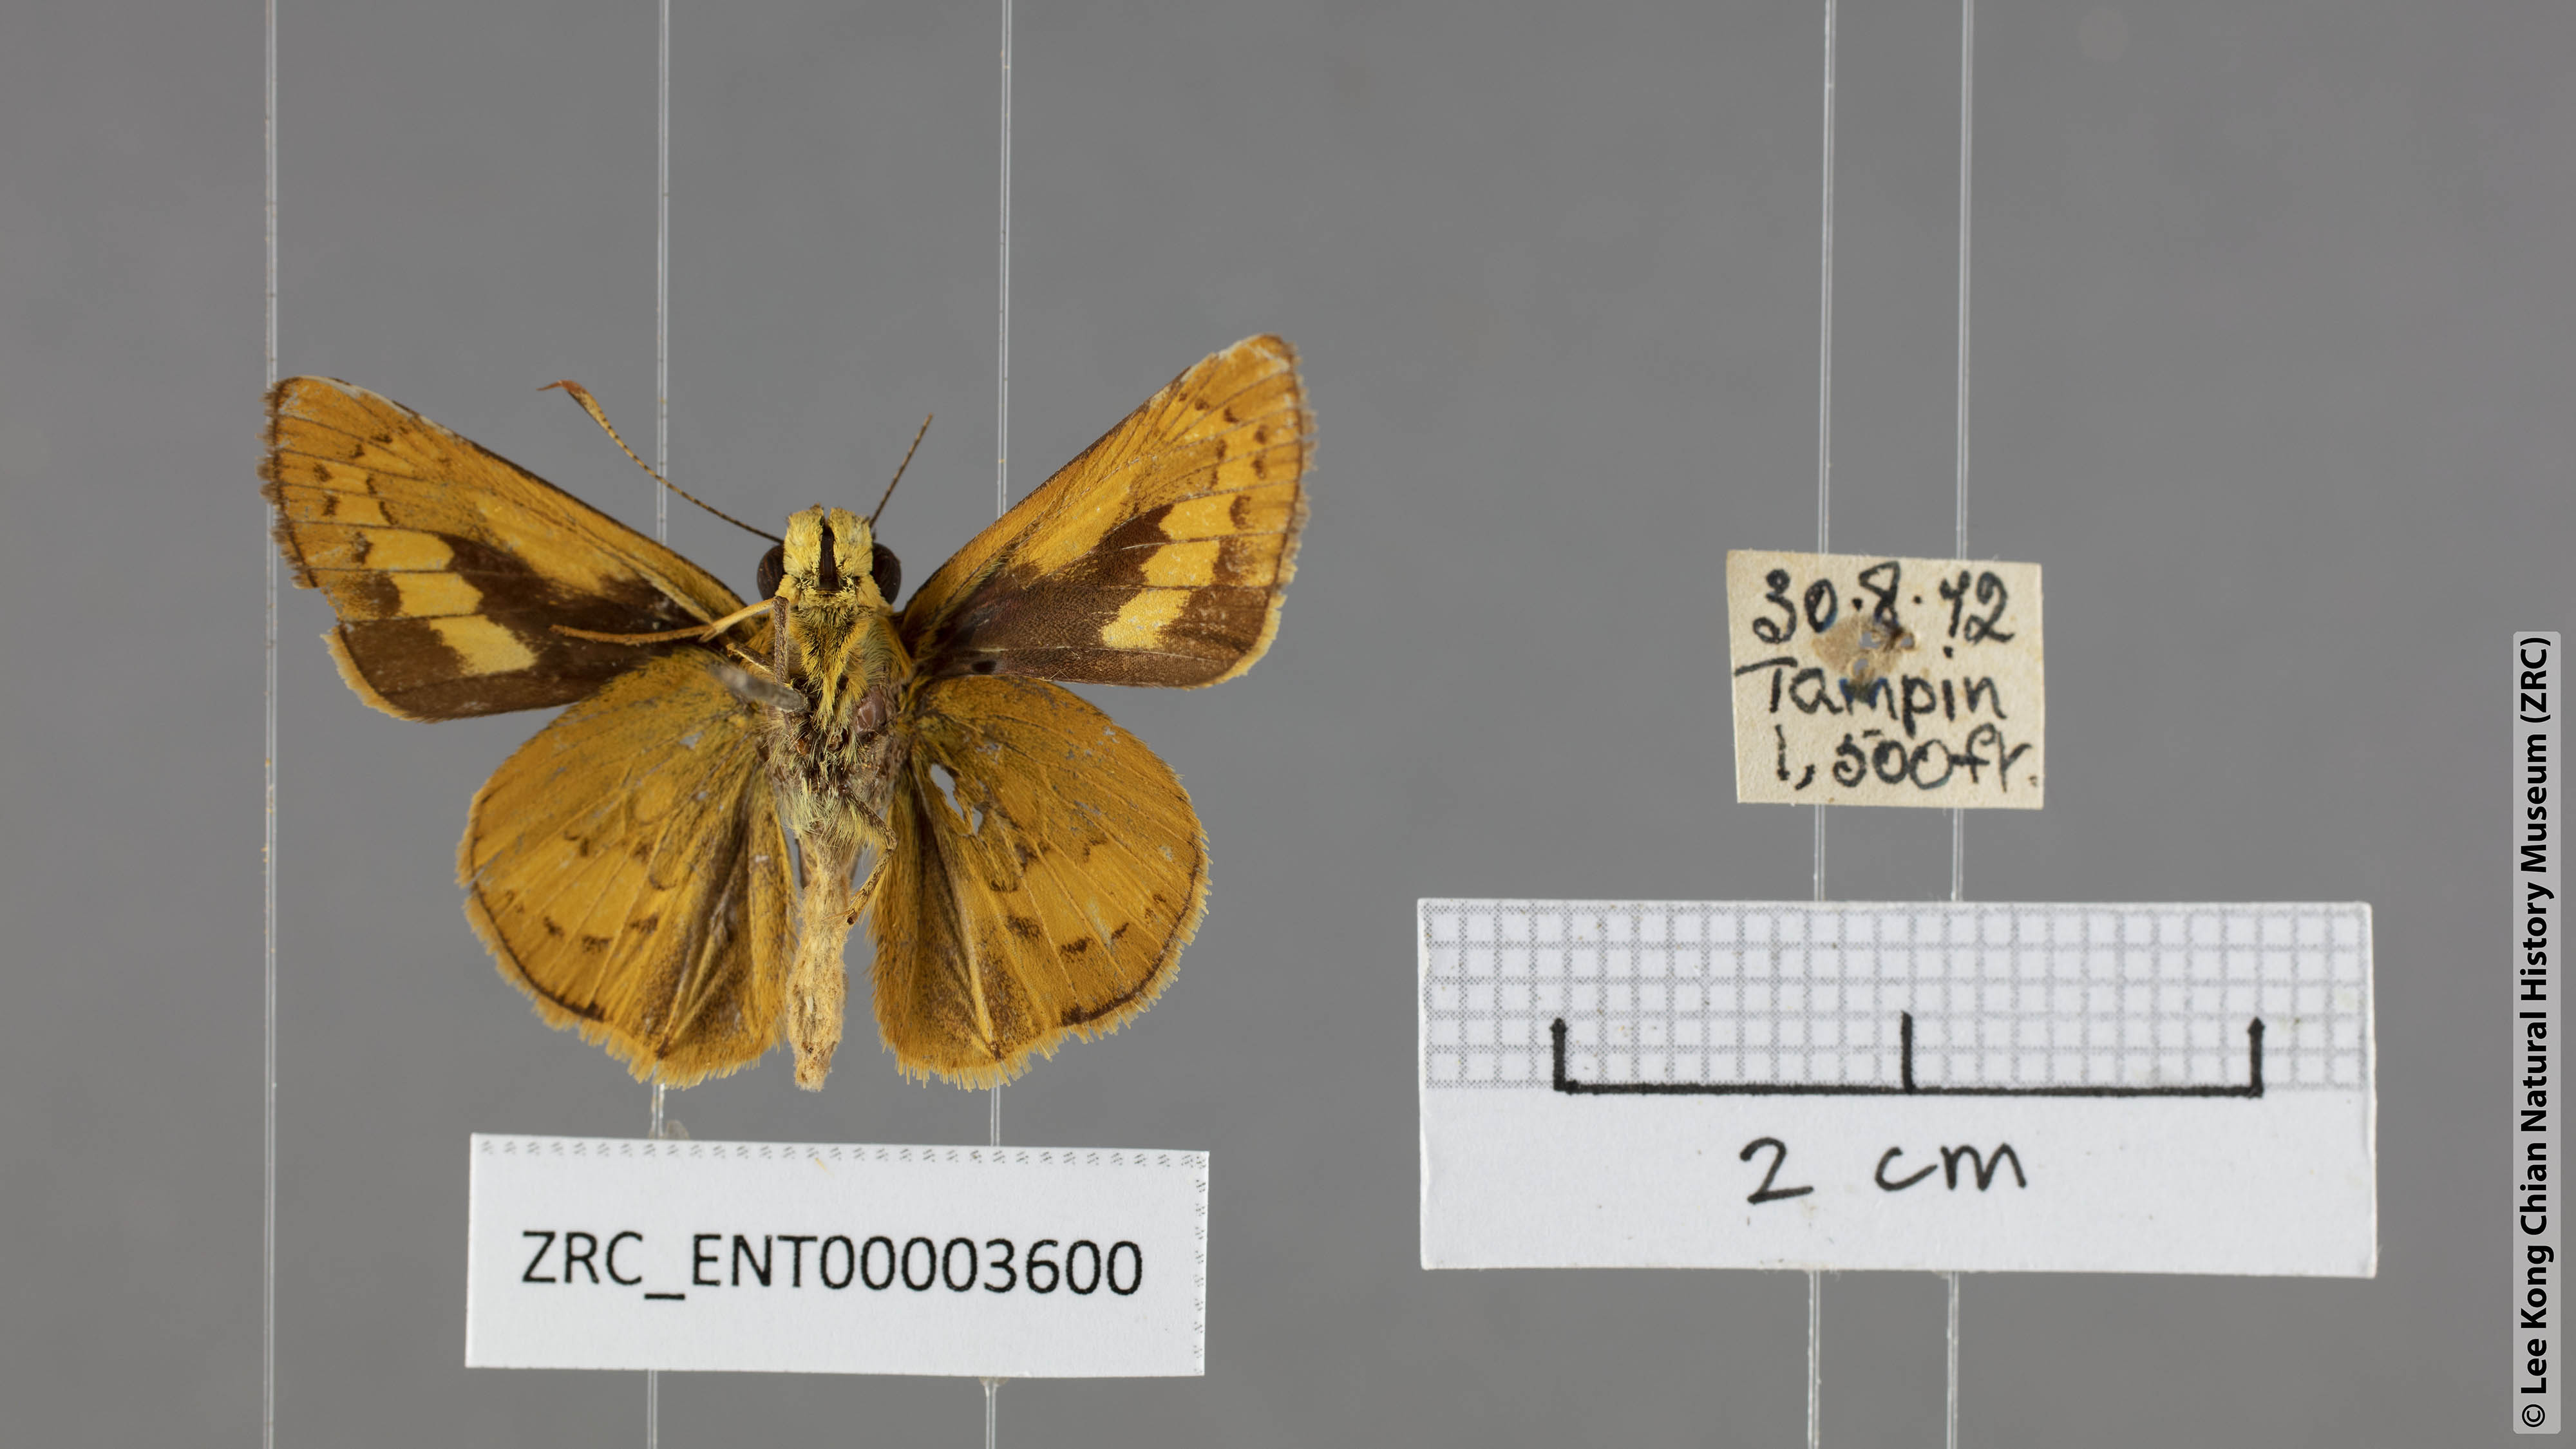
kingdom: Animalia
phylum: Arthropoda
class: Insecta
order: Lepidoptera
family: Hesperiidae
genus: Telicota
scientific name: Telicota ohara
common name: Dark palm dart
